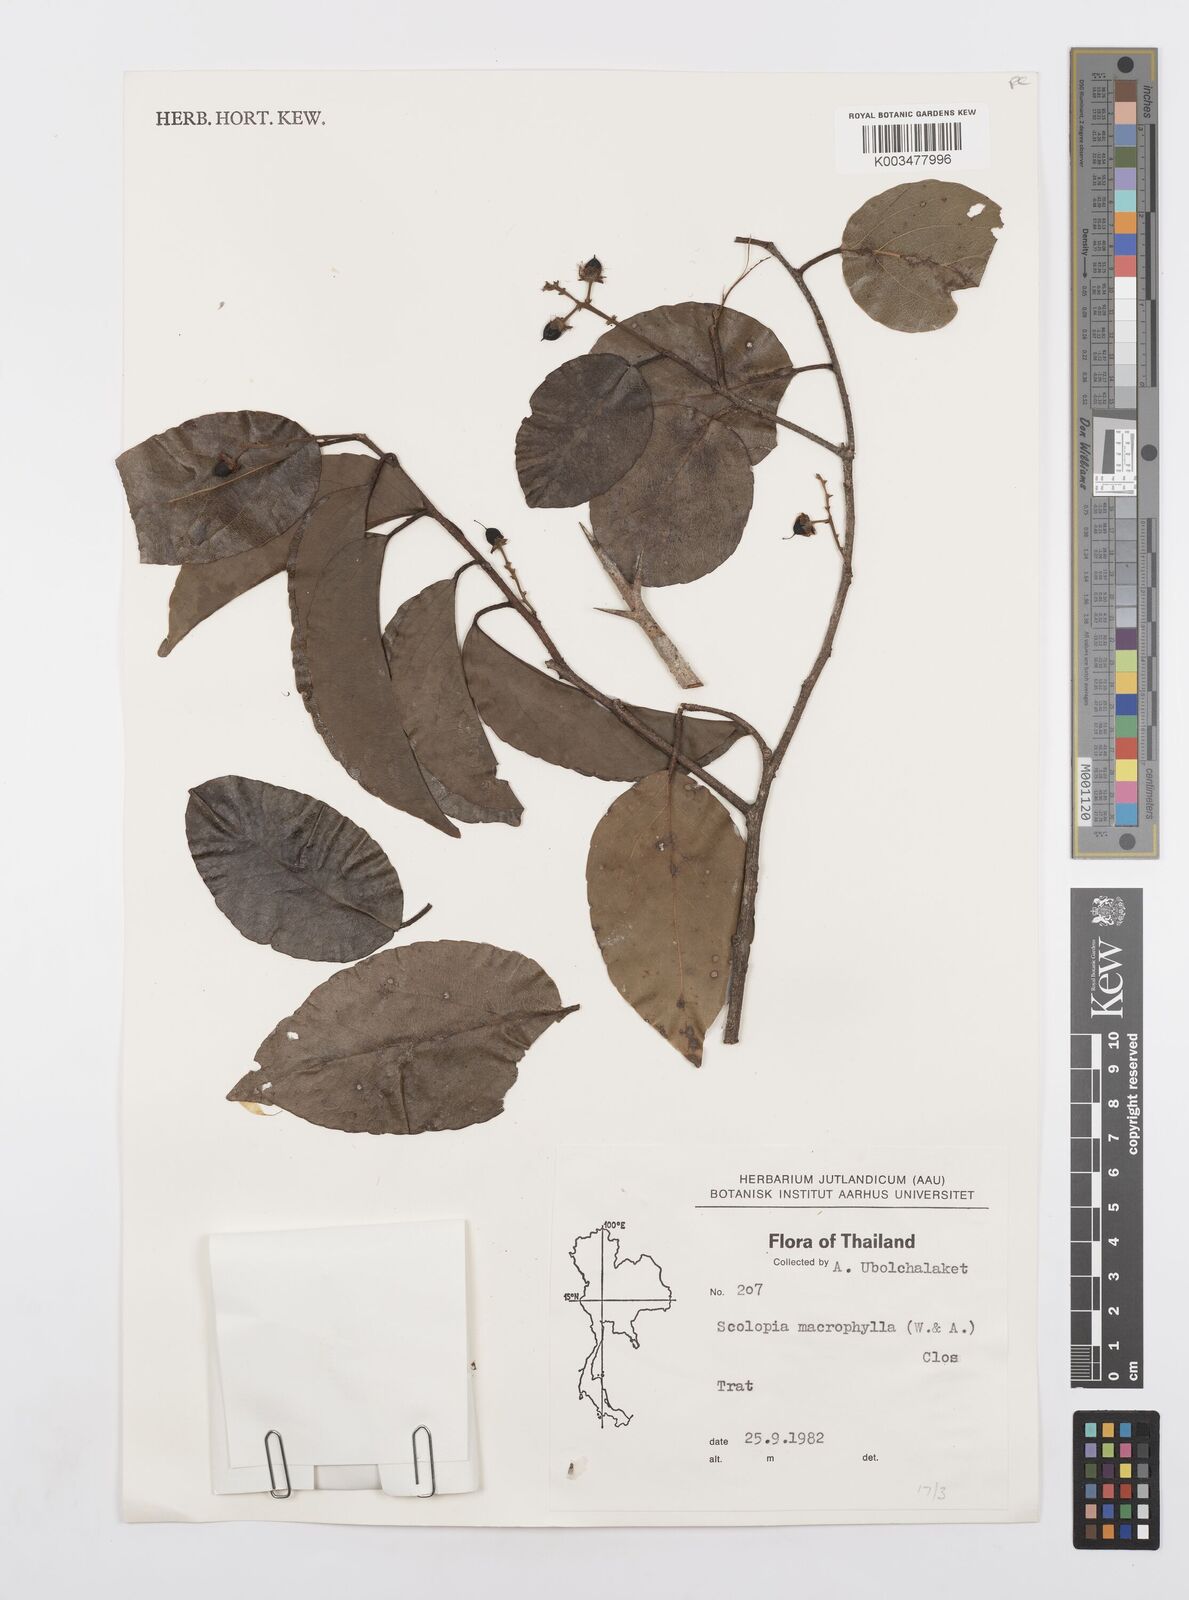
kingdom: Plantae
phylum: Tracheophyta
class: Magnoliopsida
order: Malpighiales
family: Salicaceae
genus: Scolopia
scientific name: Scolopia macrophylla
